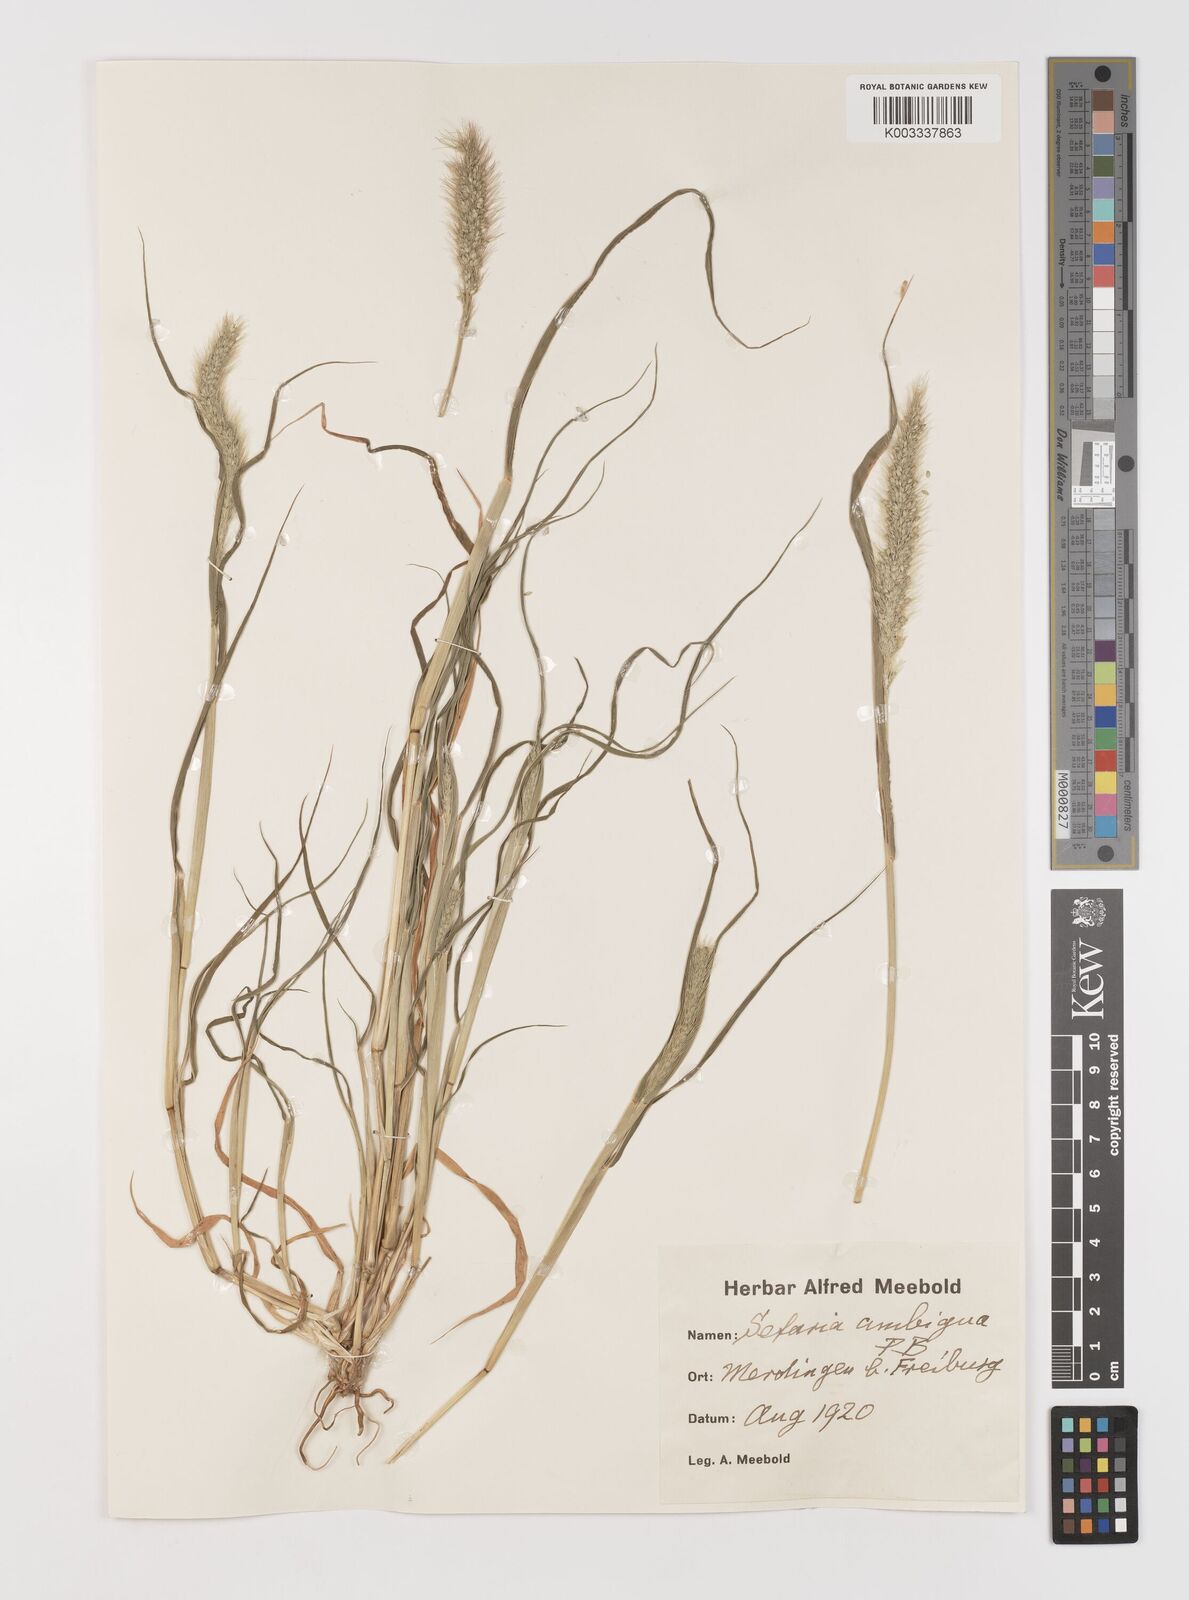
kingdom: Plantae
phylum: Tracheophyta
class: Liliopsida
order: Poales
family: Poaceae
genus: Setaria
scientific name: Setaria viridis
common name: Green bristlegrass
